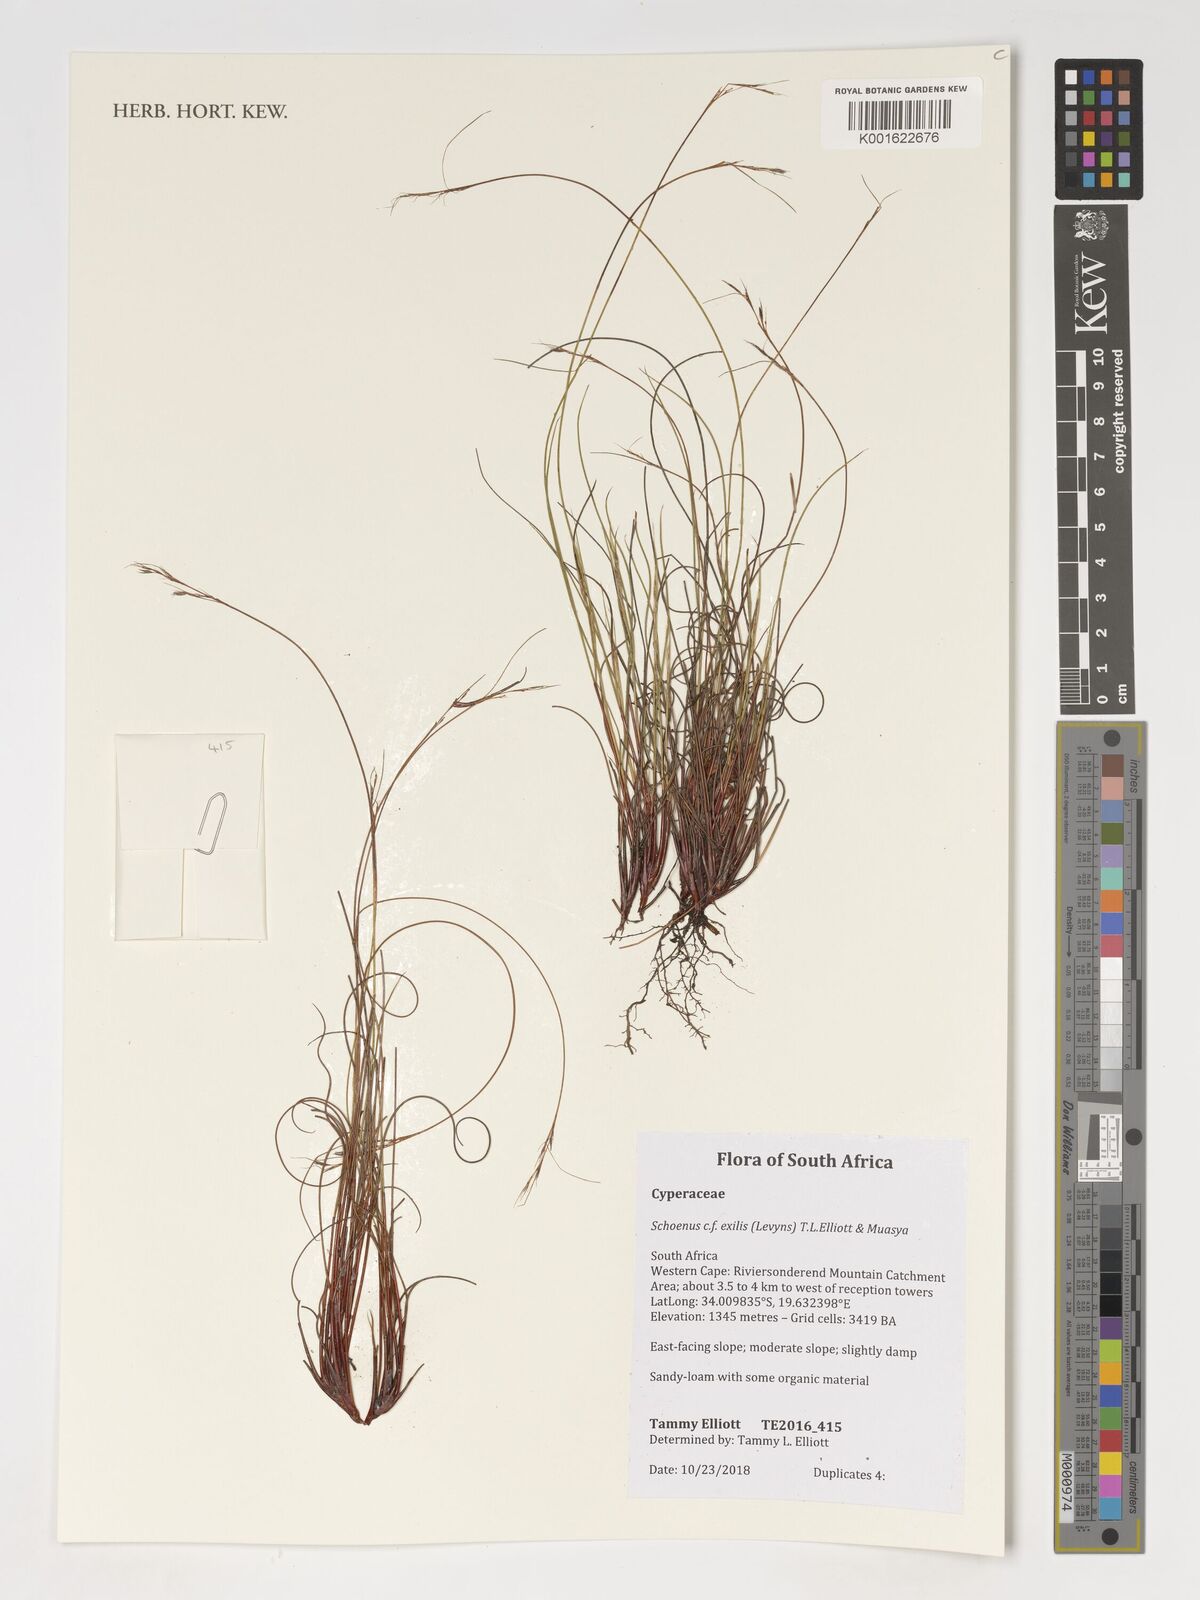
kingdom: Plantae
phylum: Tracheophyta
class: Liliopsida
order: Poales
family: Cyperaceae
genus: Schoenus
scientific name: Schoenus exilis
